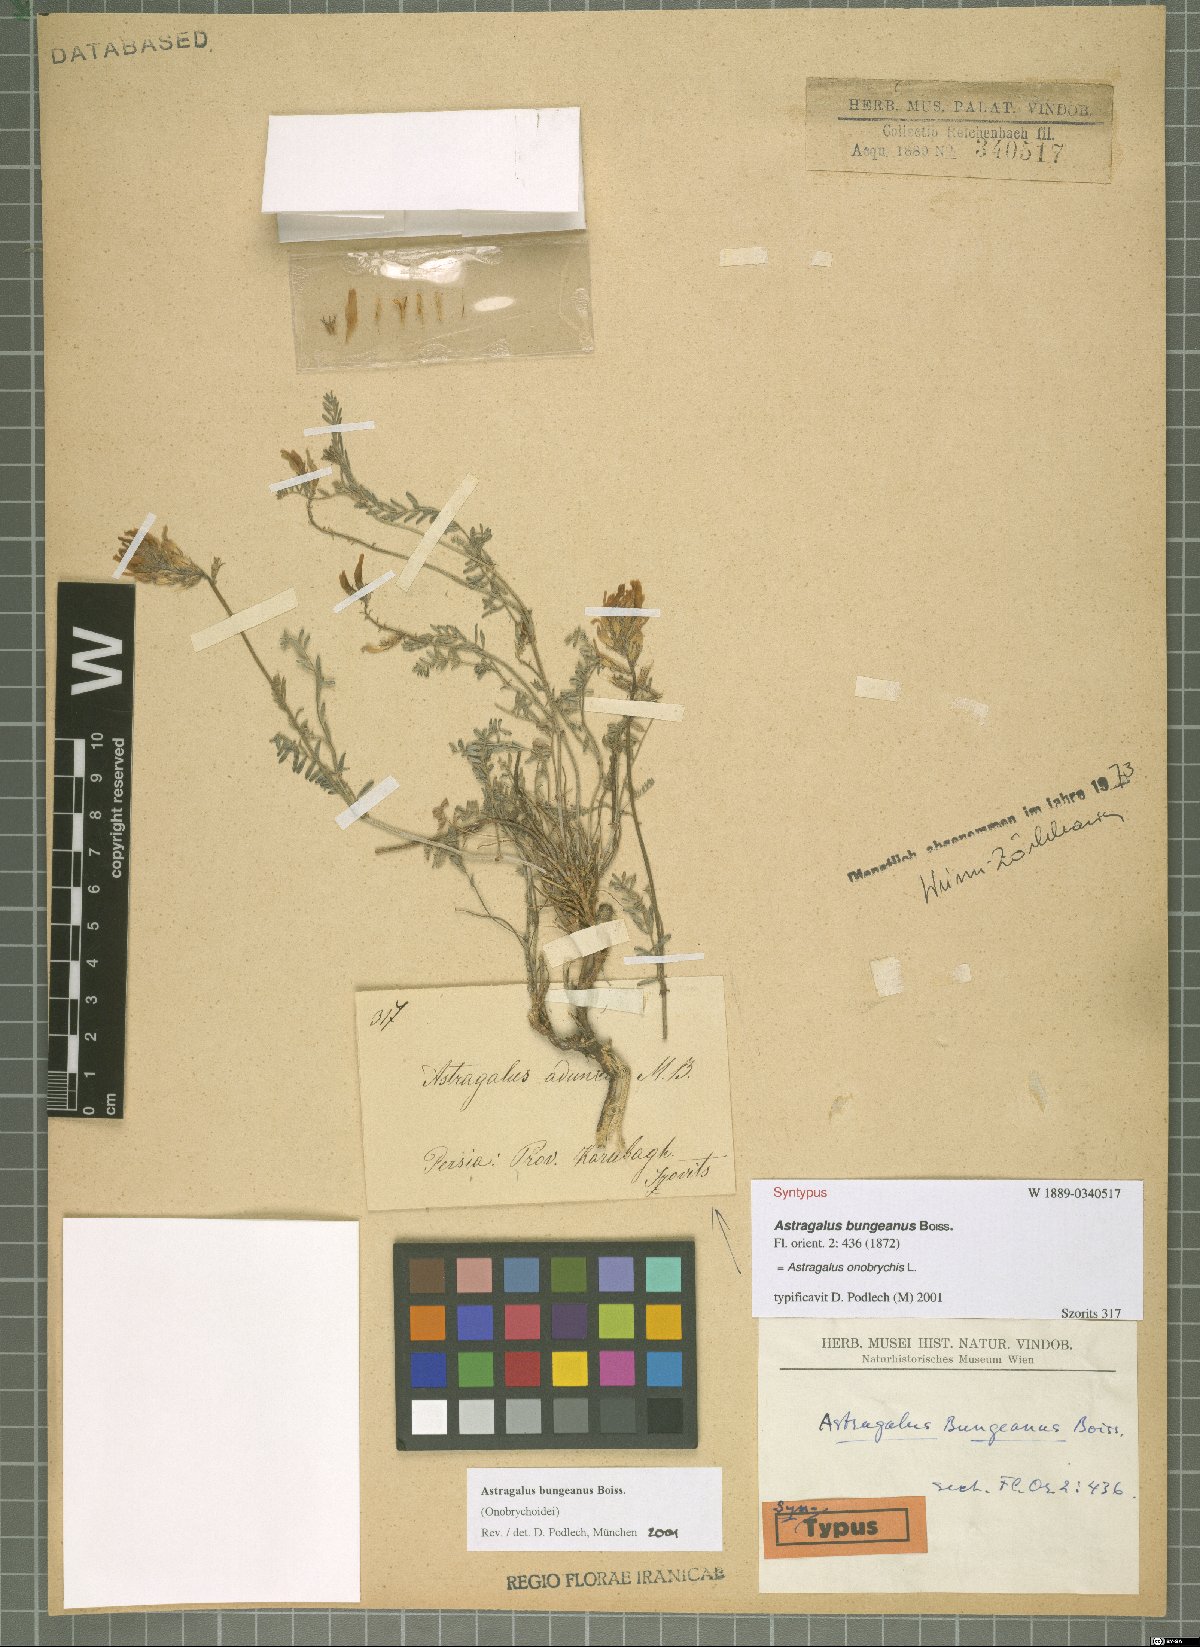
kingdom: Plantae
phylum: Tracheophyta
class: Magnoliopsida
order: Fabales
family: Fabaceae
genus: Astragalus
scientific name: Astragalus onobrychis
